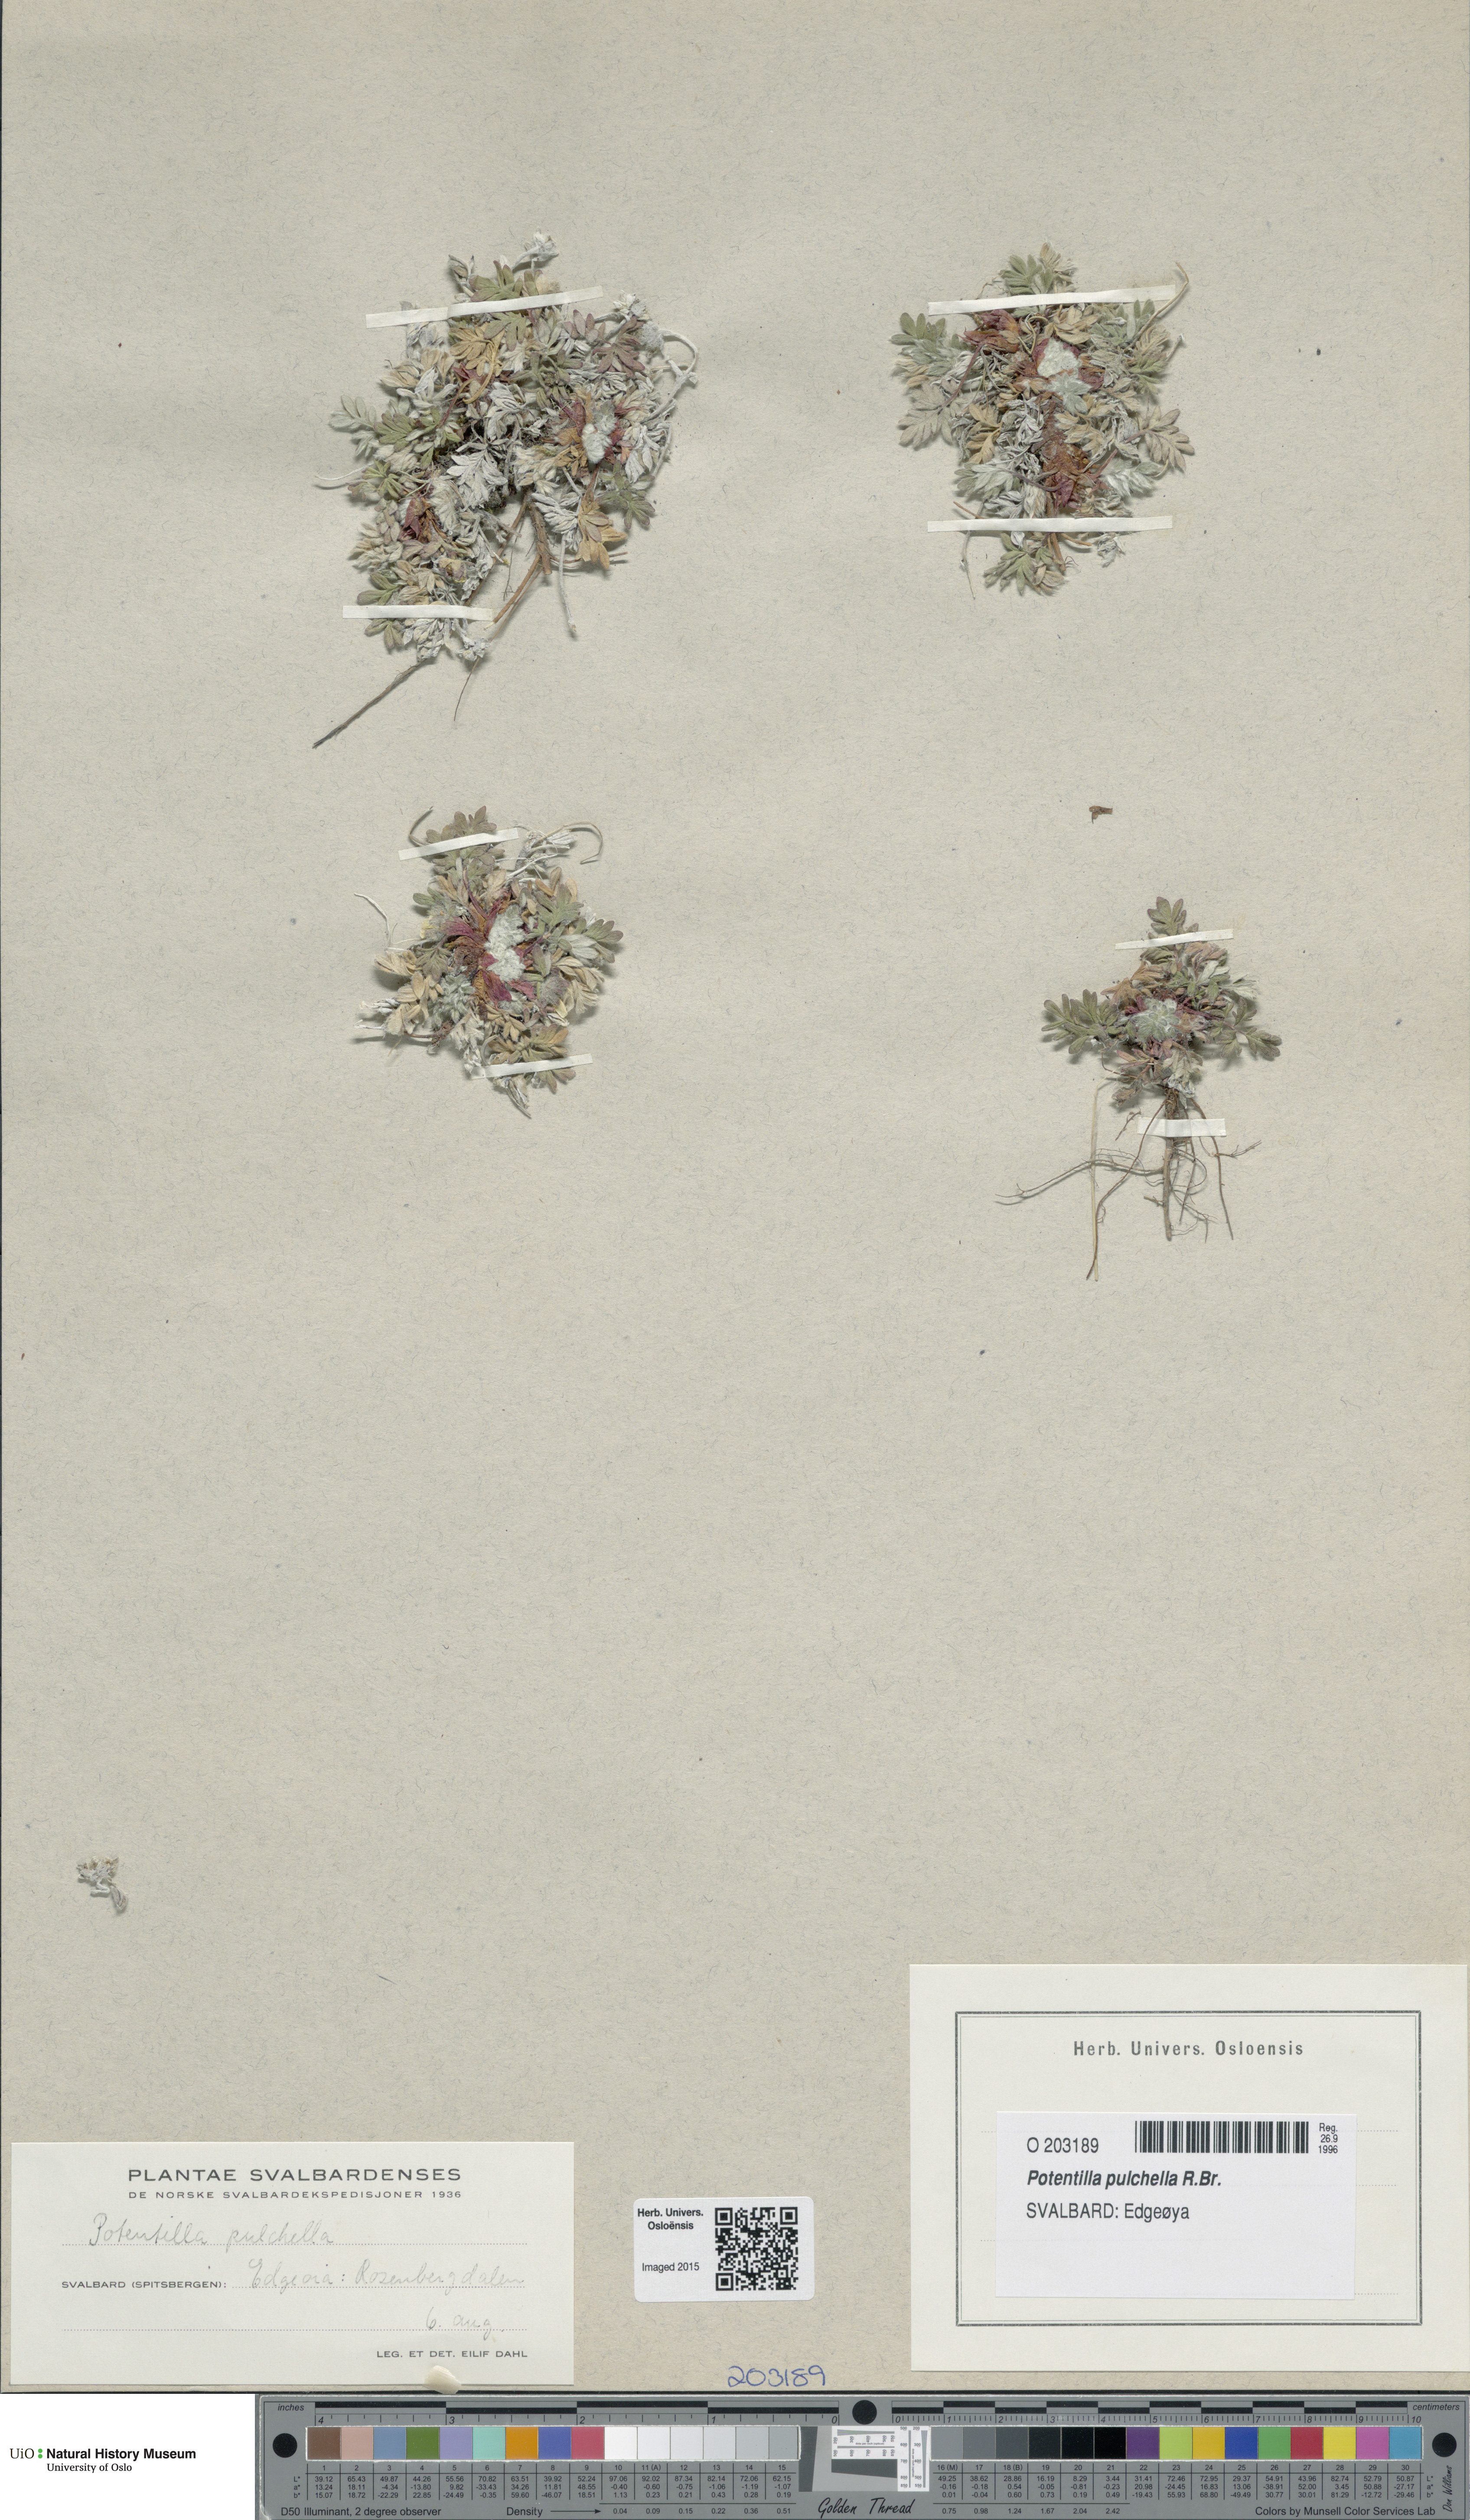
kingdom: Plantae
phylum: Tracheophyta
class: Magnoliopsida
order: Rosales
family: Rosaceae
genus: Potentilla
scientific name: Potentilla pulchella
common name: Pretty cinquefoil
